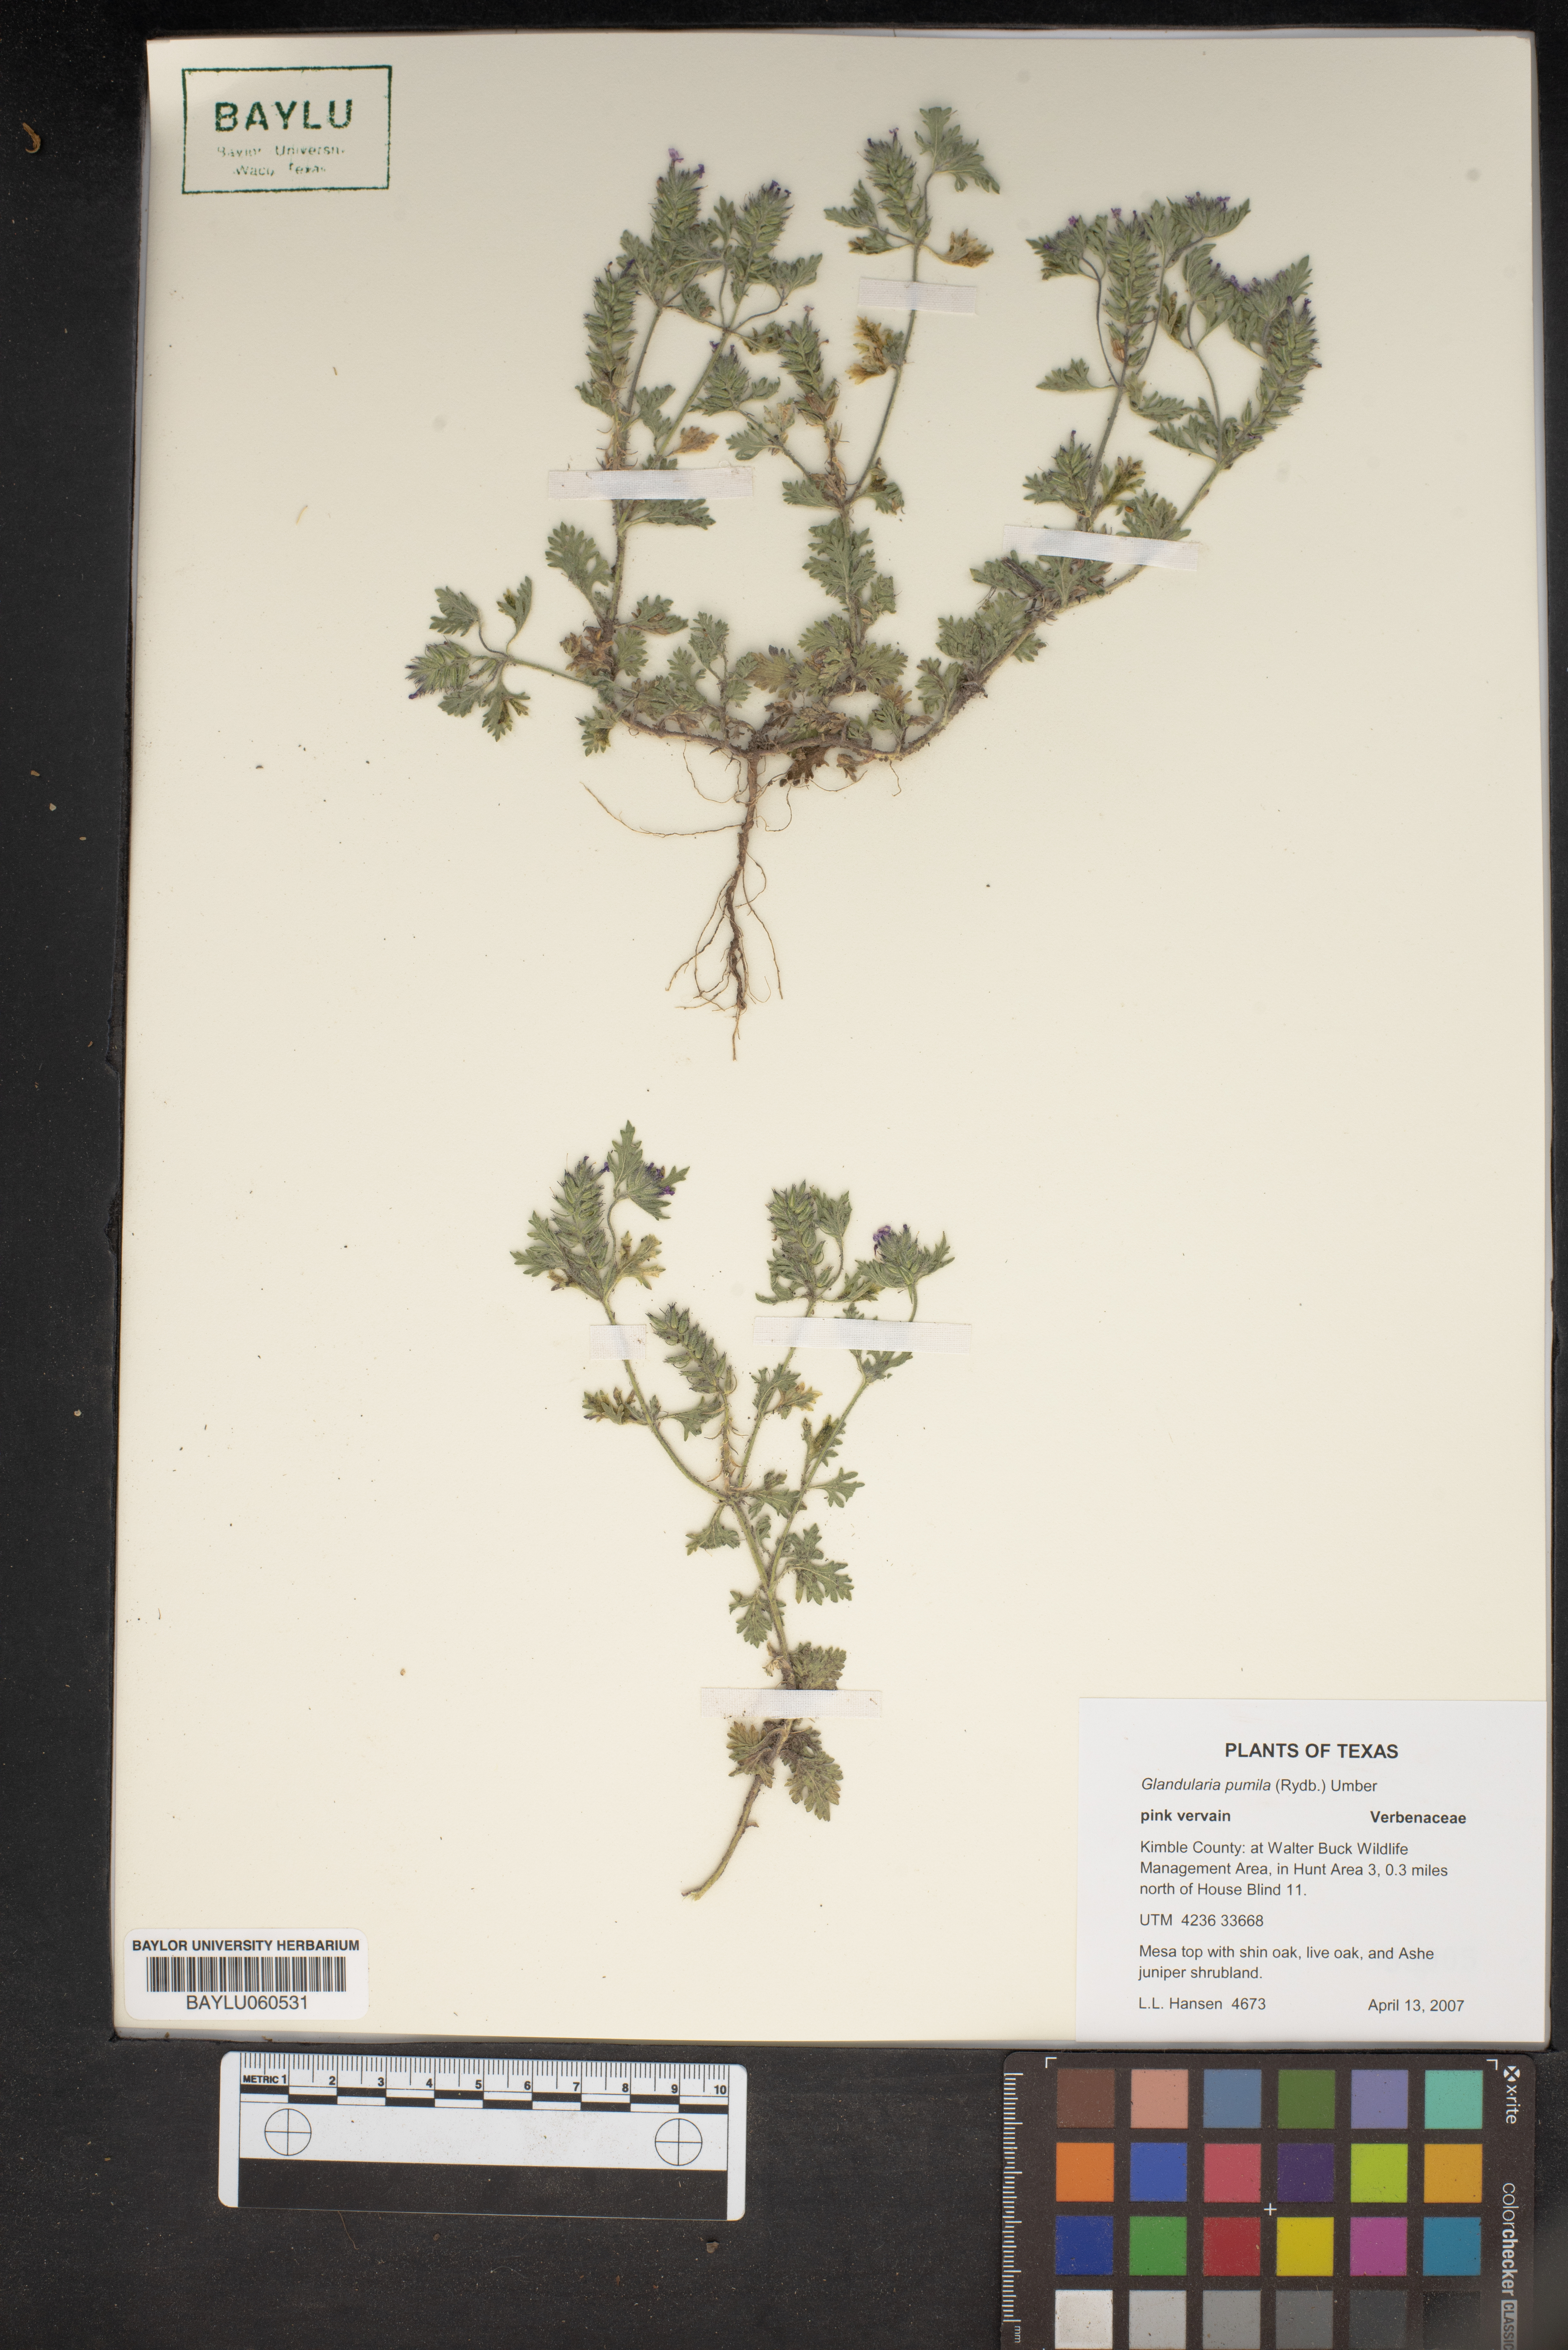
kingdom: Plantae
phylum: Tracheophyta
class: Magnoliopsida
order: Lamiales
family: Verbenaceae
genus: Verbena
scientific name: Verbena pumila
